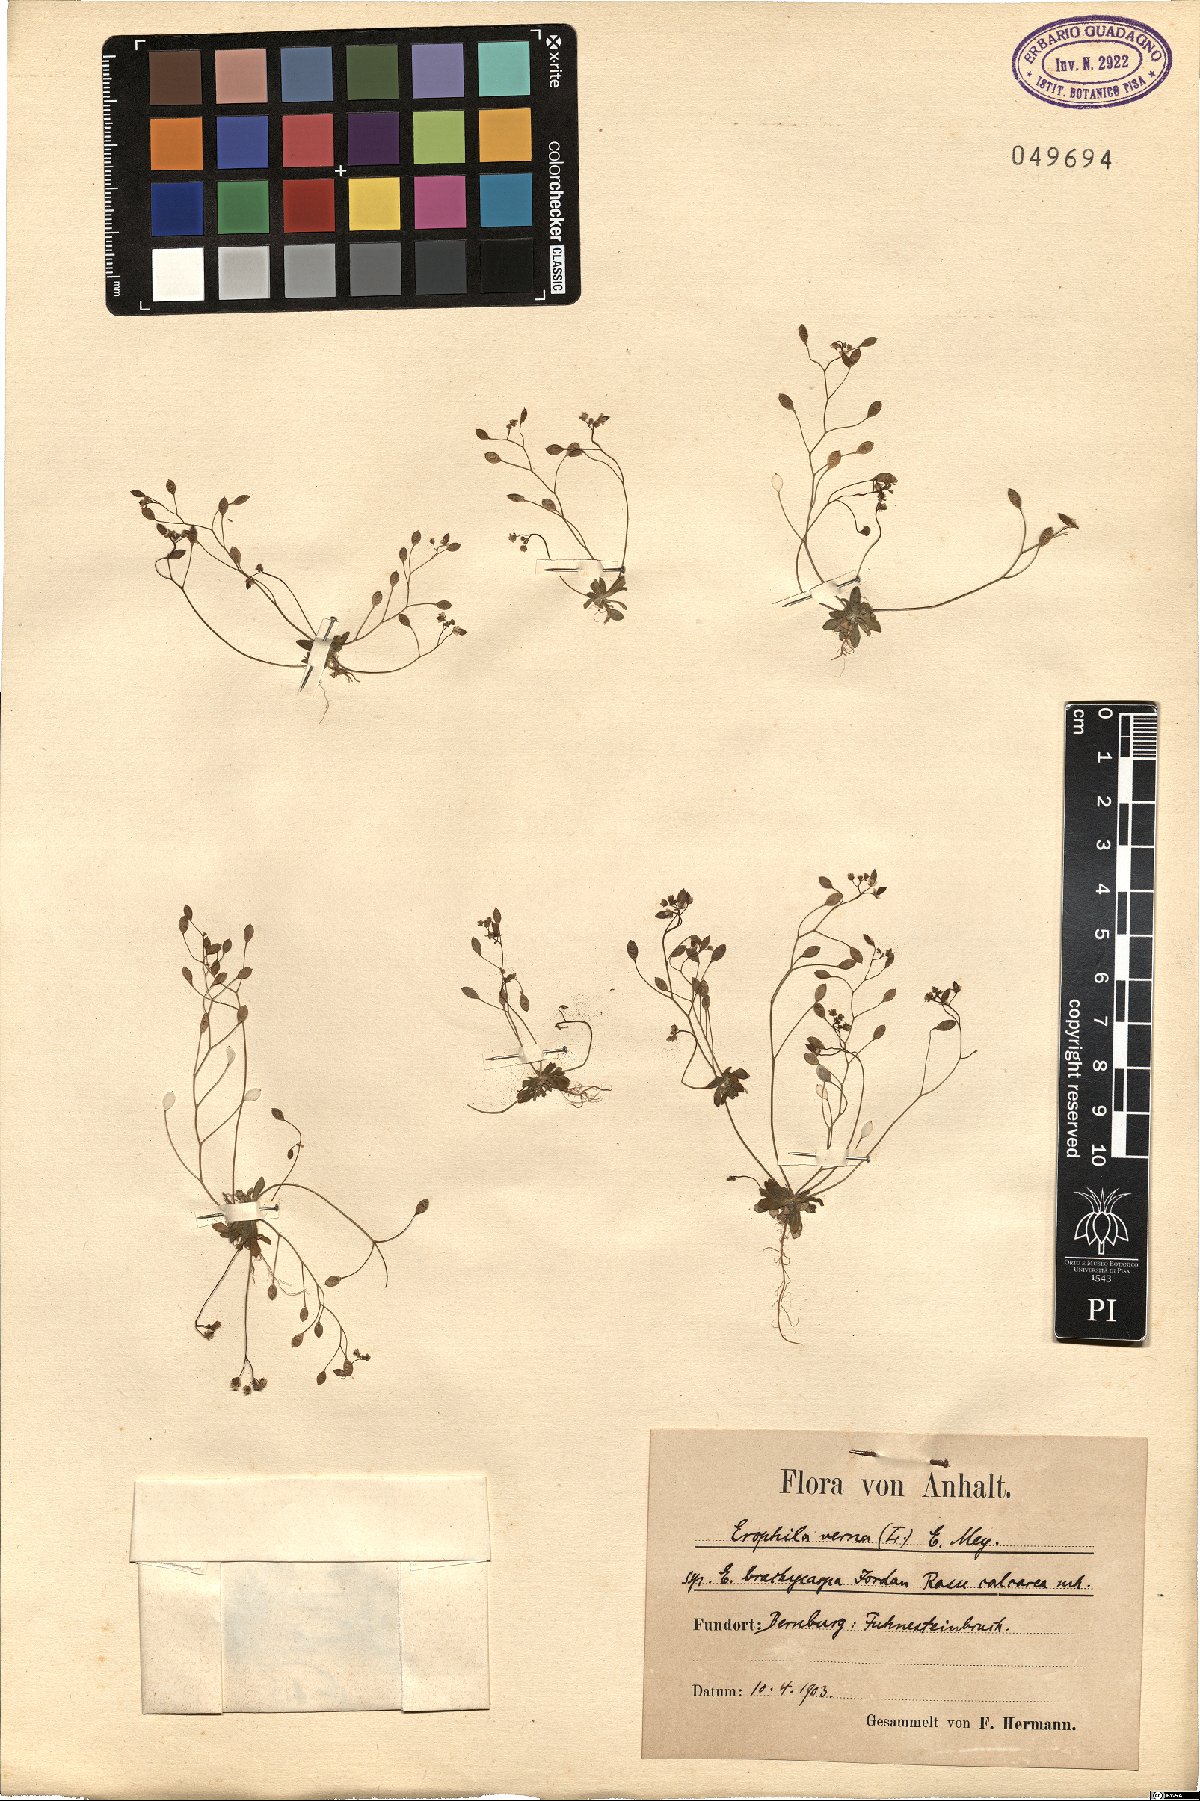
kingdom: Plantae
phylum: Tracheophyta
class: Magnoliopsida
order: Brassicales
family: Brassicaceae
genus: Draba
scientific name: Draba verna
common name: Spring draba
